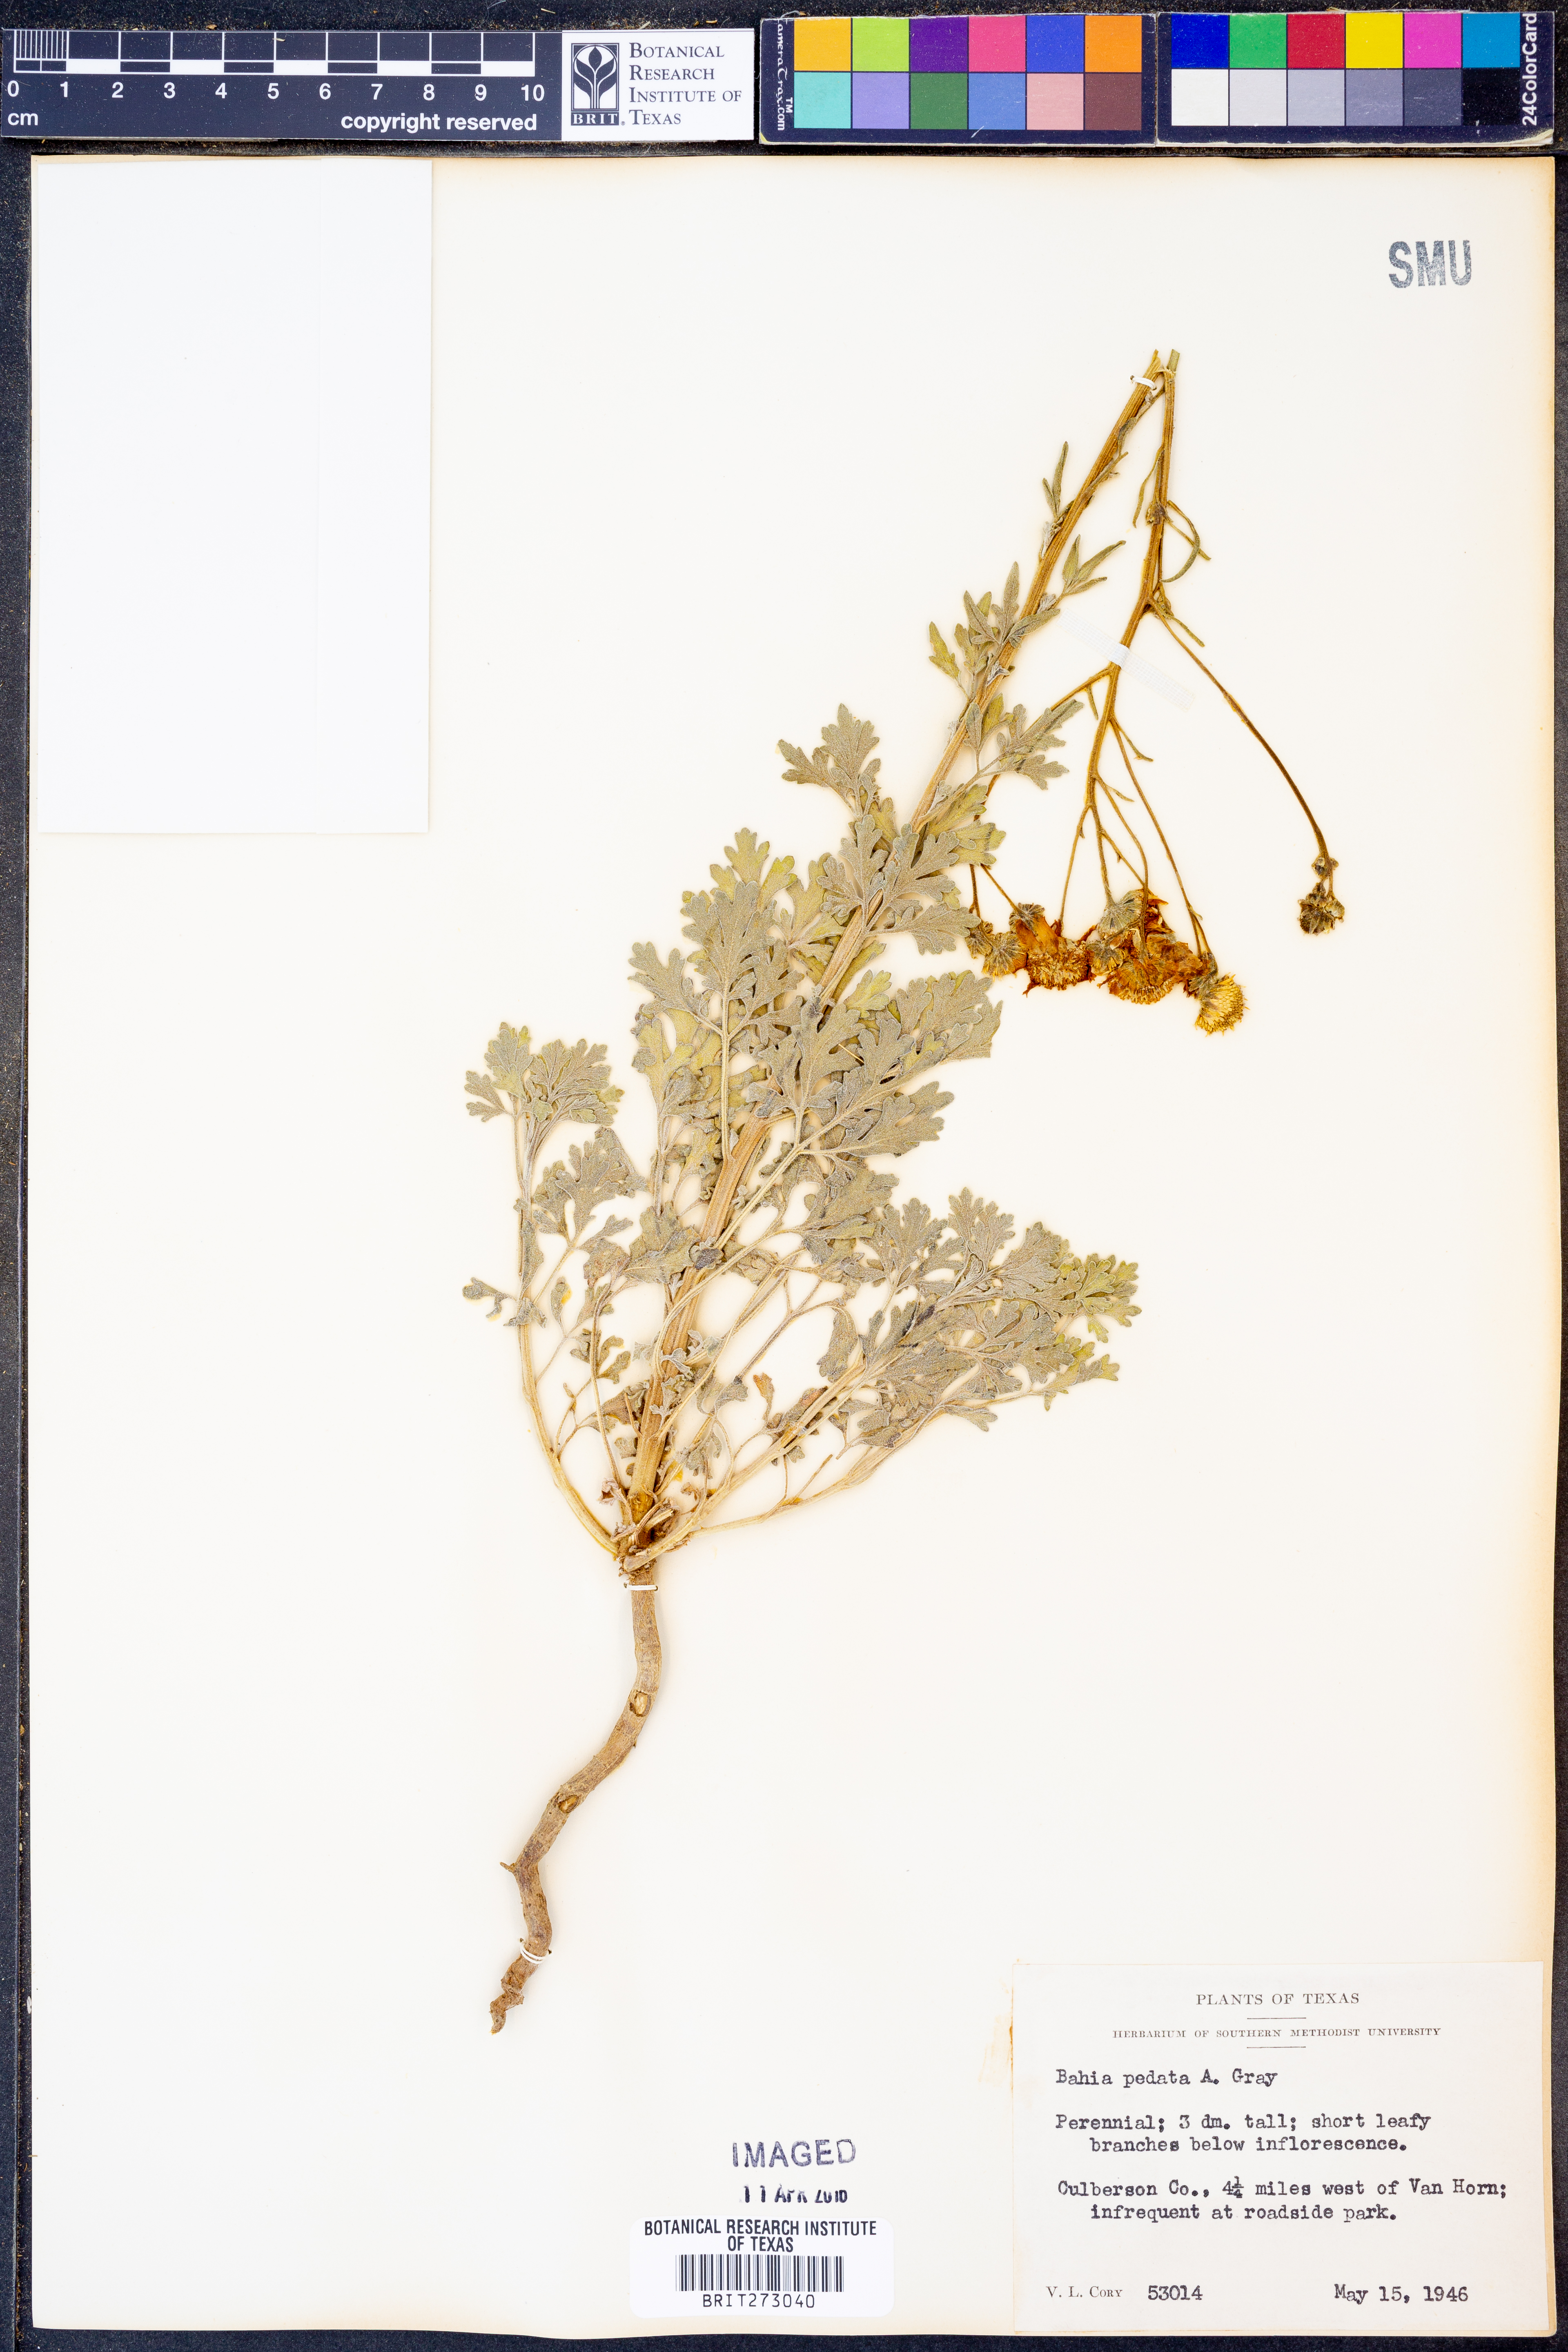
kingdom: Plantae
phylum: Tracheophyta
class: Magnoliopsida
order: Asterales
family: Asteraceae
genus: Hymenothrix
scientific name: Hymenothrix pedata
